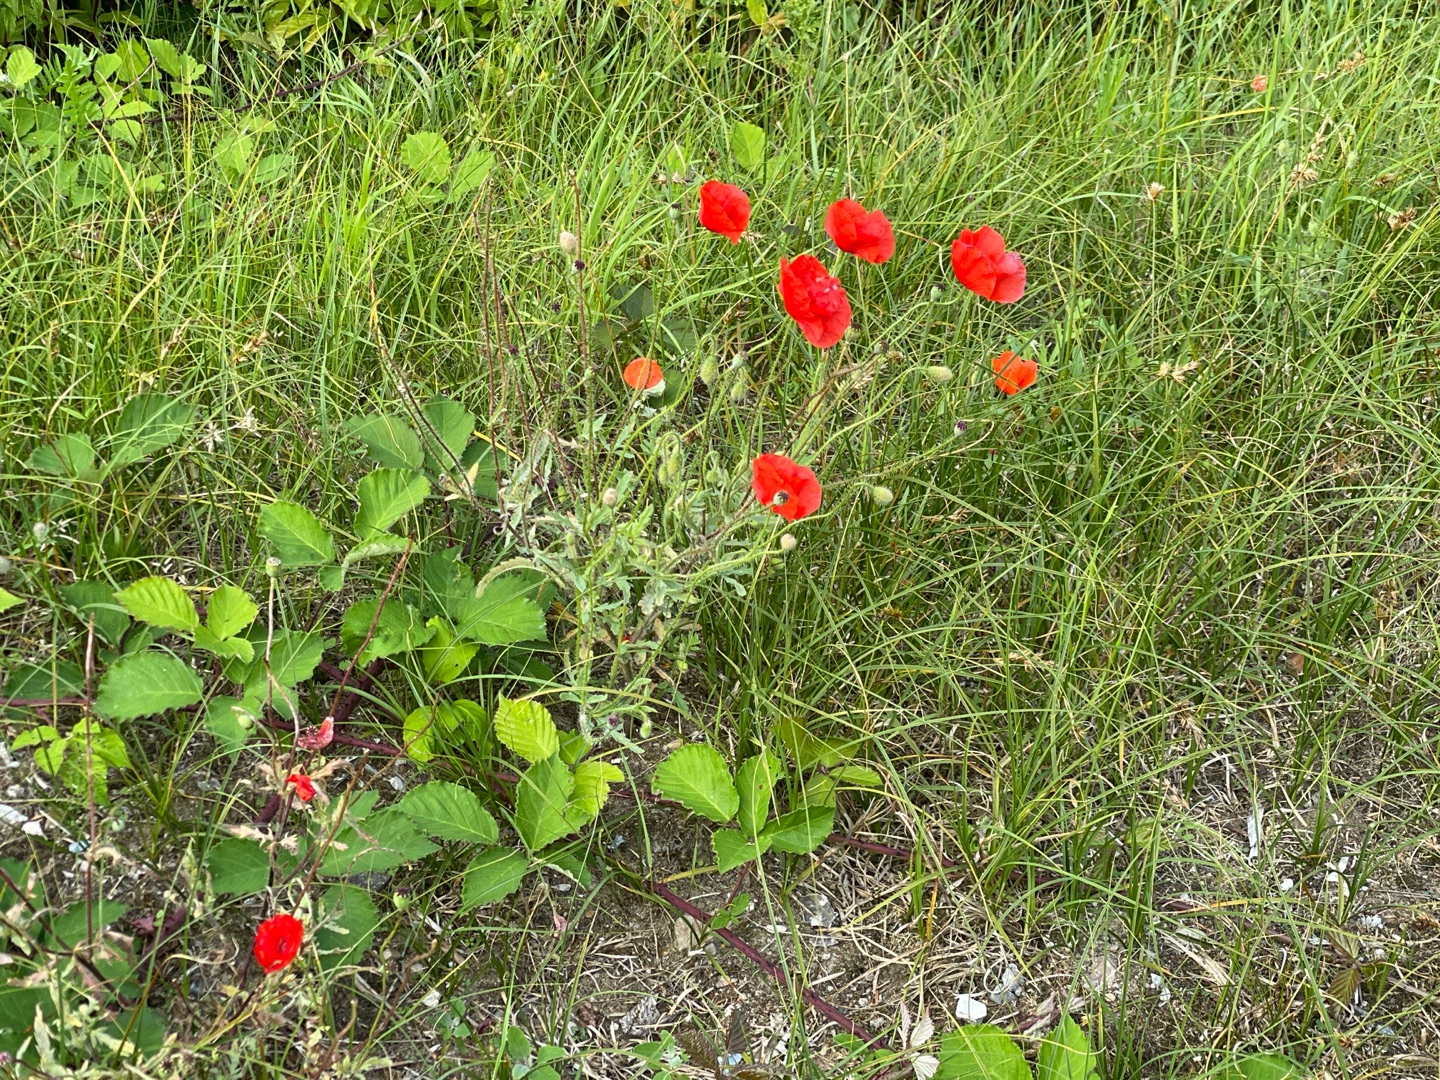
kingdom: Plantae
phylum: Tracheophyta
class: Magnoliopsida
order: Ranunculales
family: Papaveraceae
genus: Papaver
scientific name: Papaver rhoeas
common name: Korn-valmue
